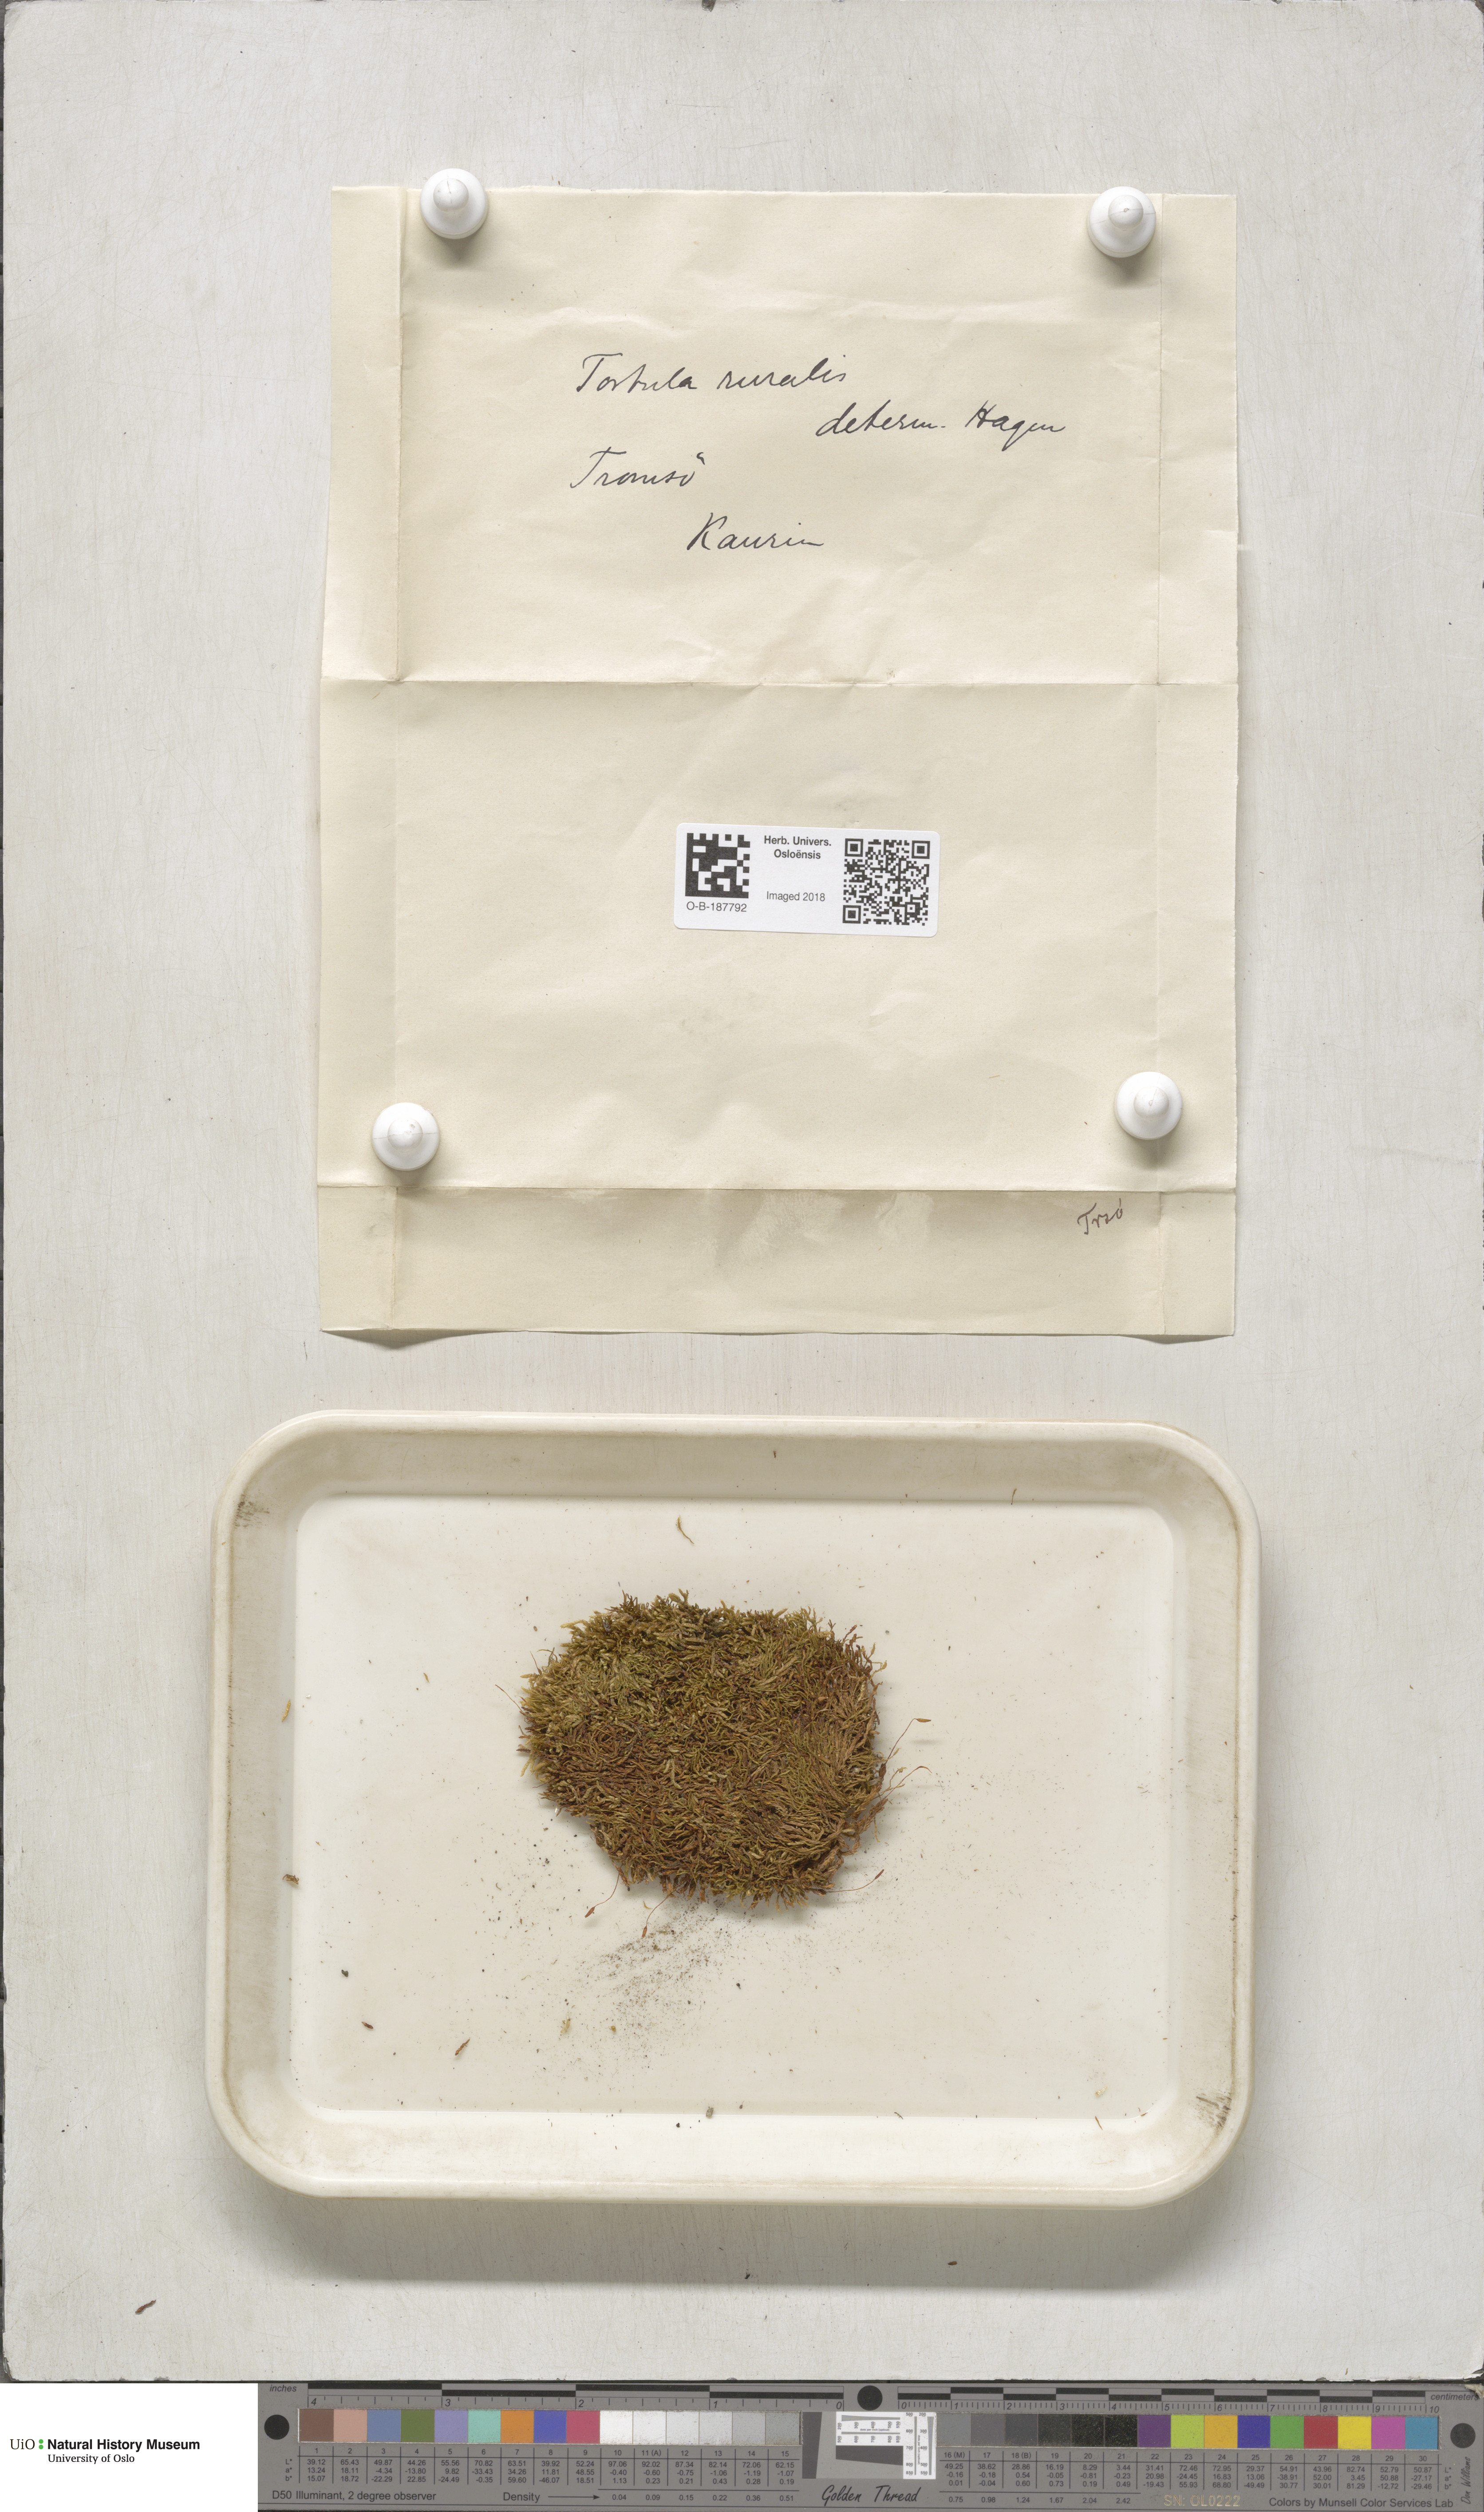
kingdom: Plantae
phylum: Bryophyta
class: Bryopsida
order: Pottiales
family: Pottiaceae
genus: Syntrichia
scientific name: Syntrichia ruralis
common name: Sidewalk screw moss
